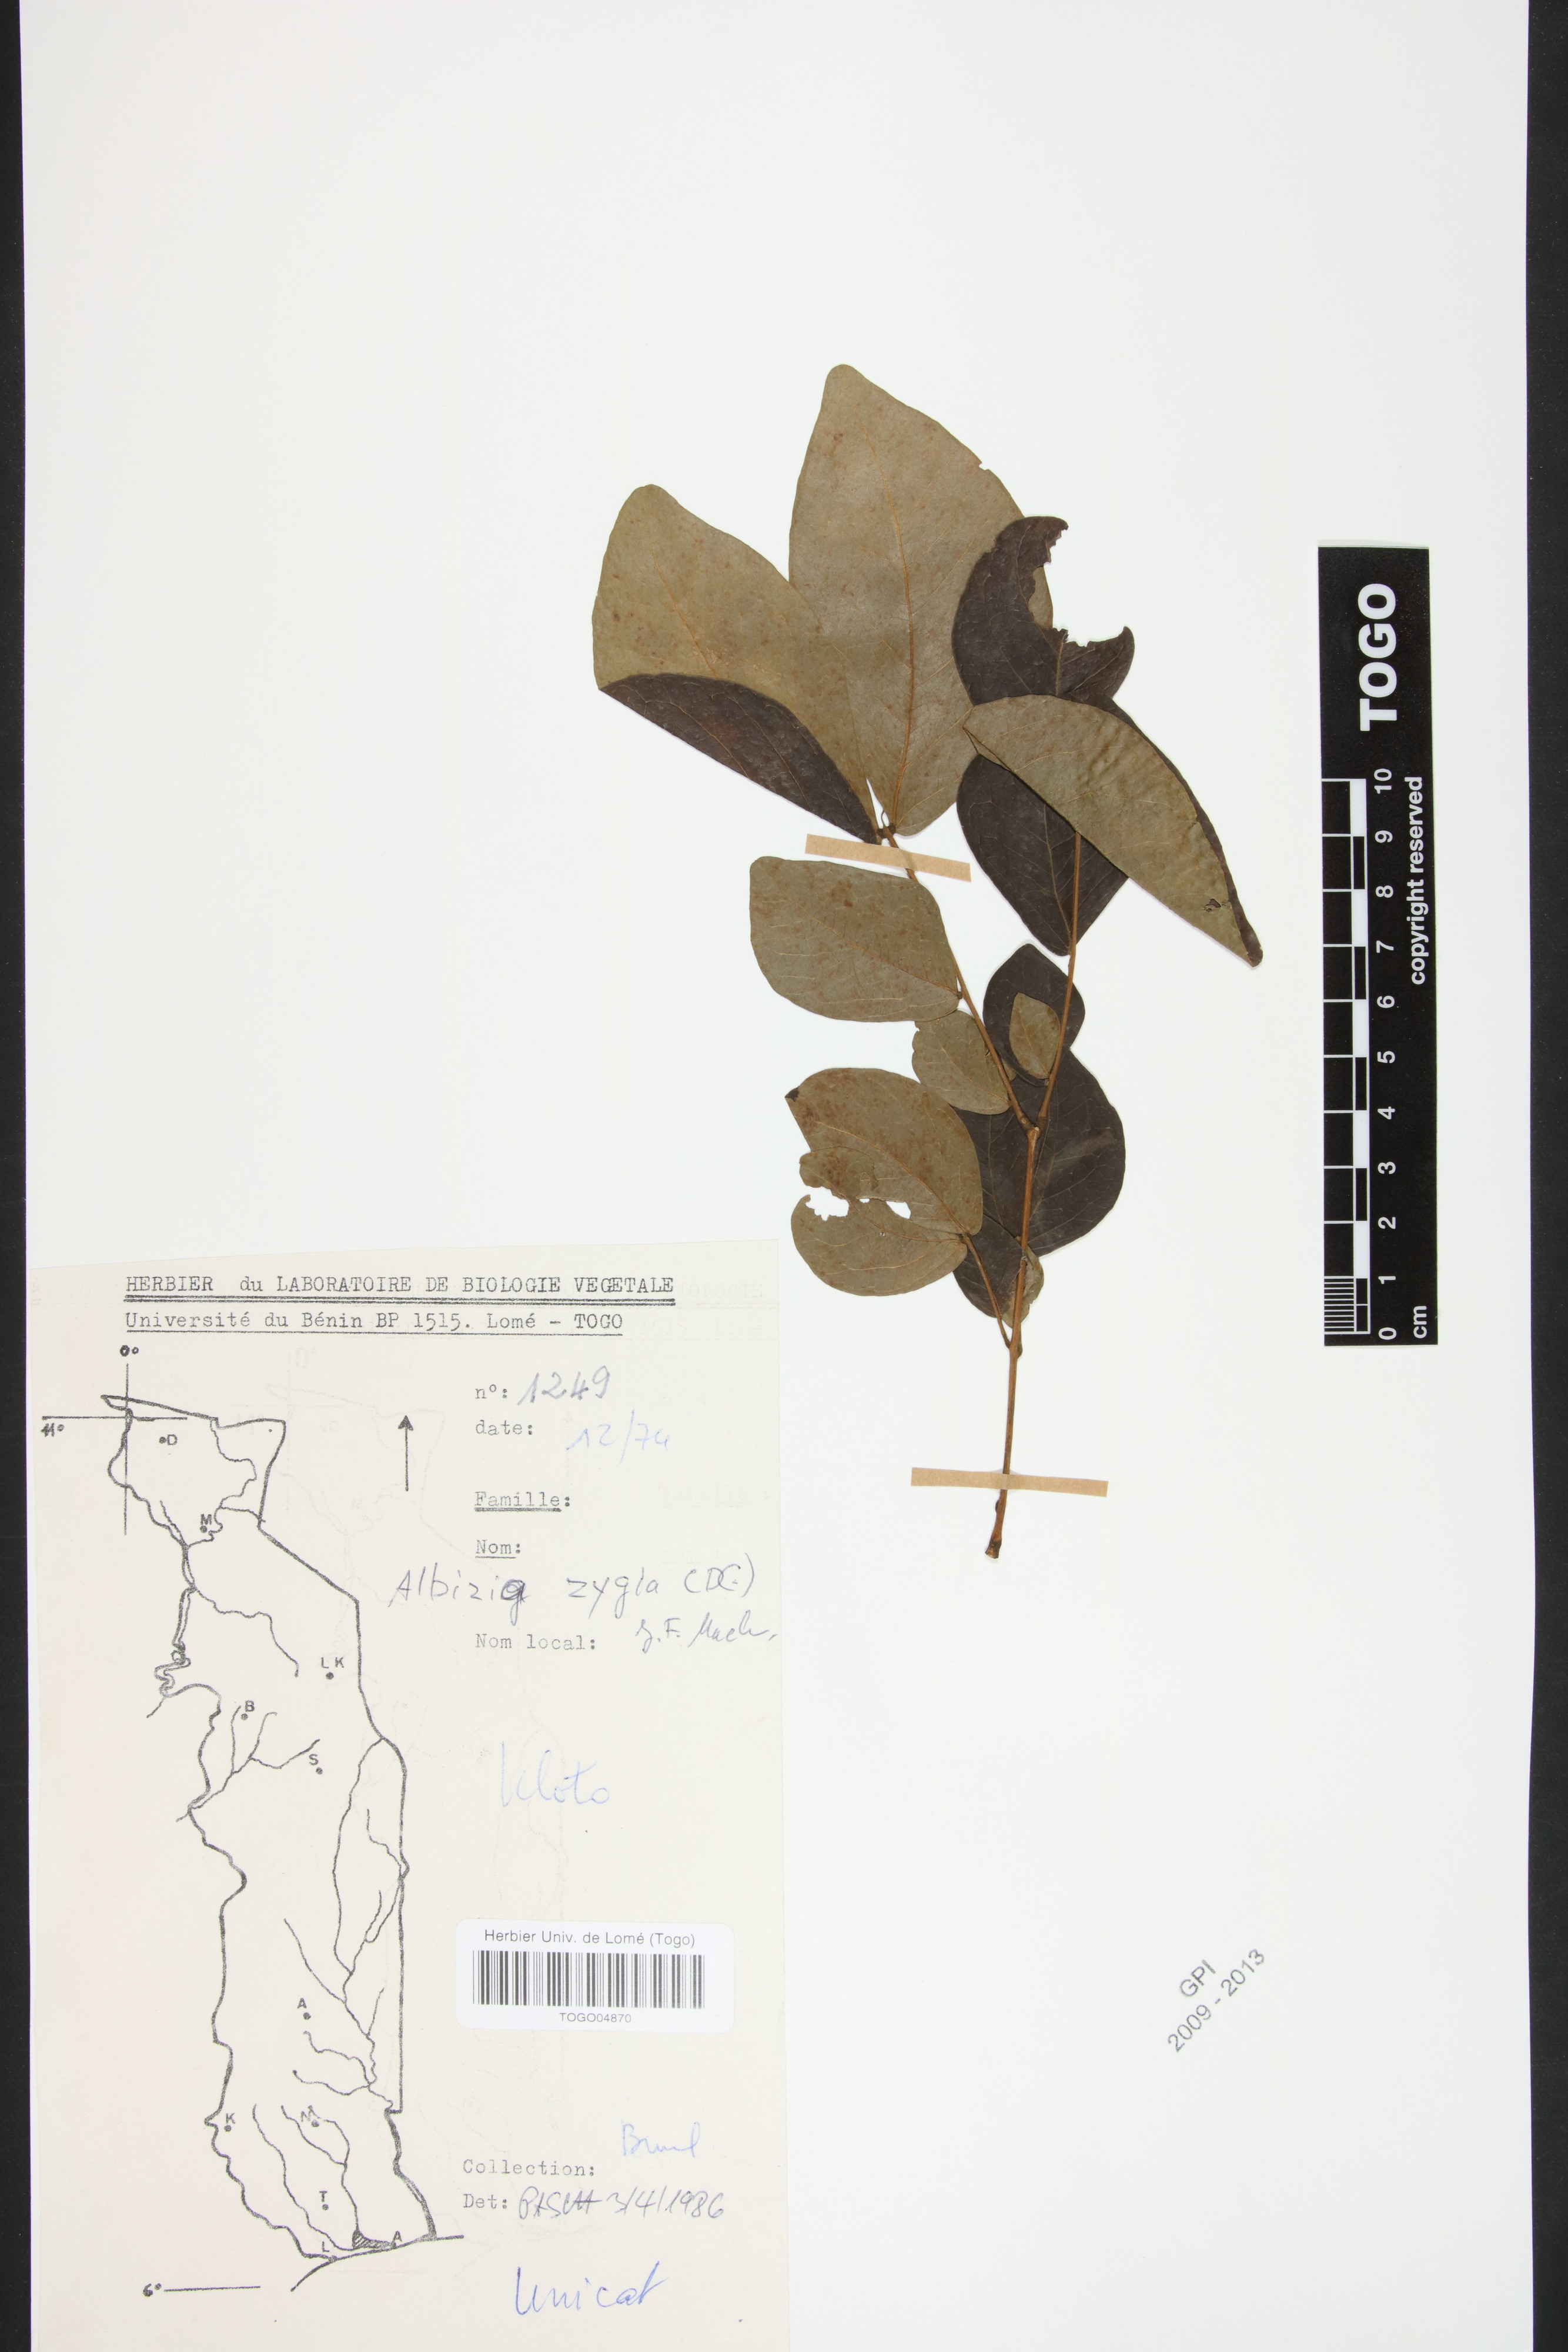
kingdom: Plantae
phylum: Tracheophyta
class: Magnoliopsida
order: Fabales
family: Fabaceae
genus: Albizia
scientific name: Albizia zygia
